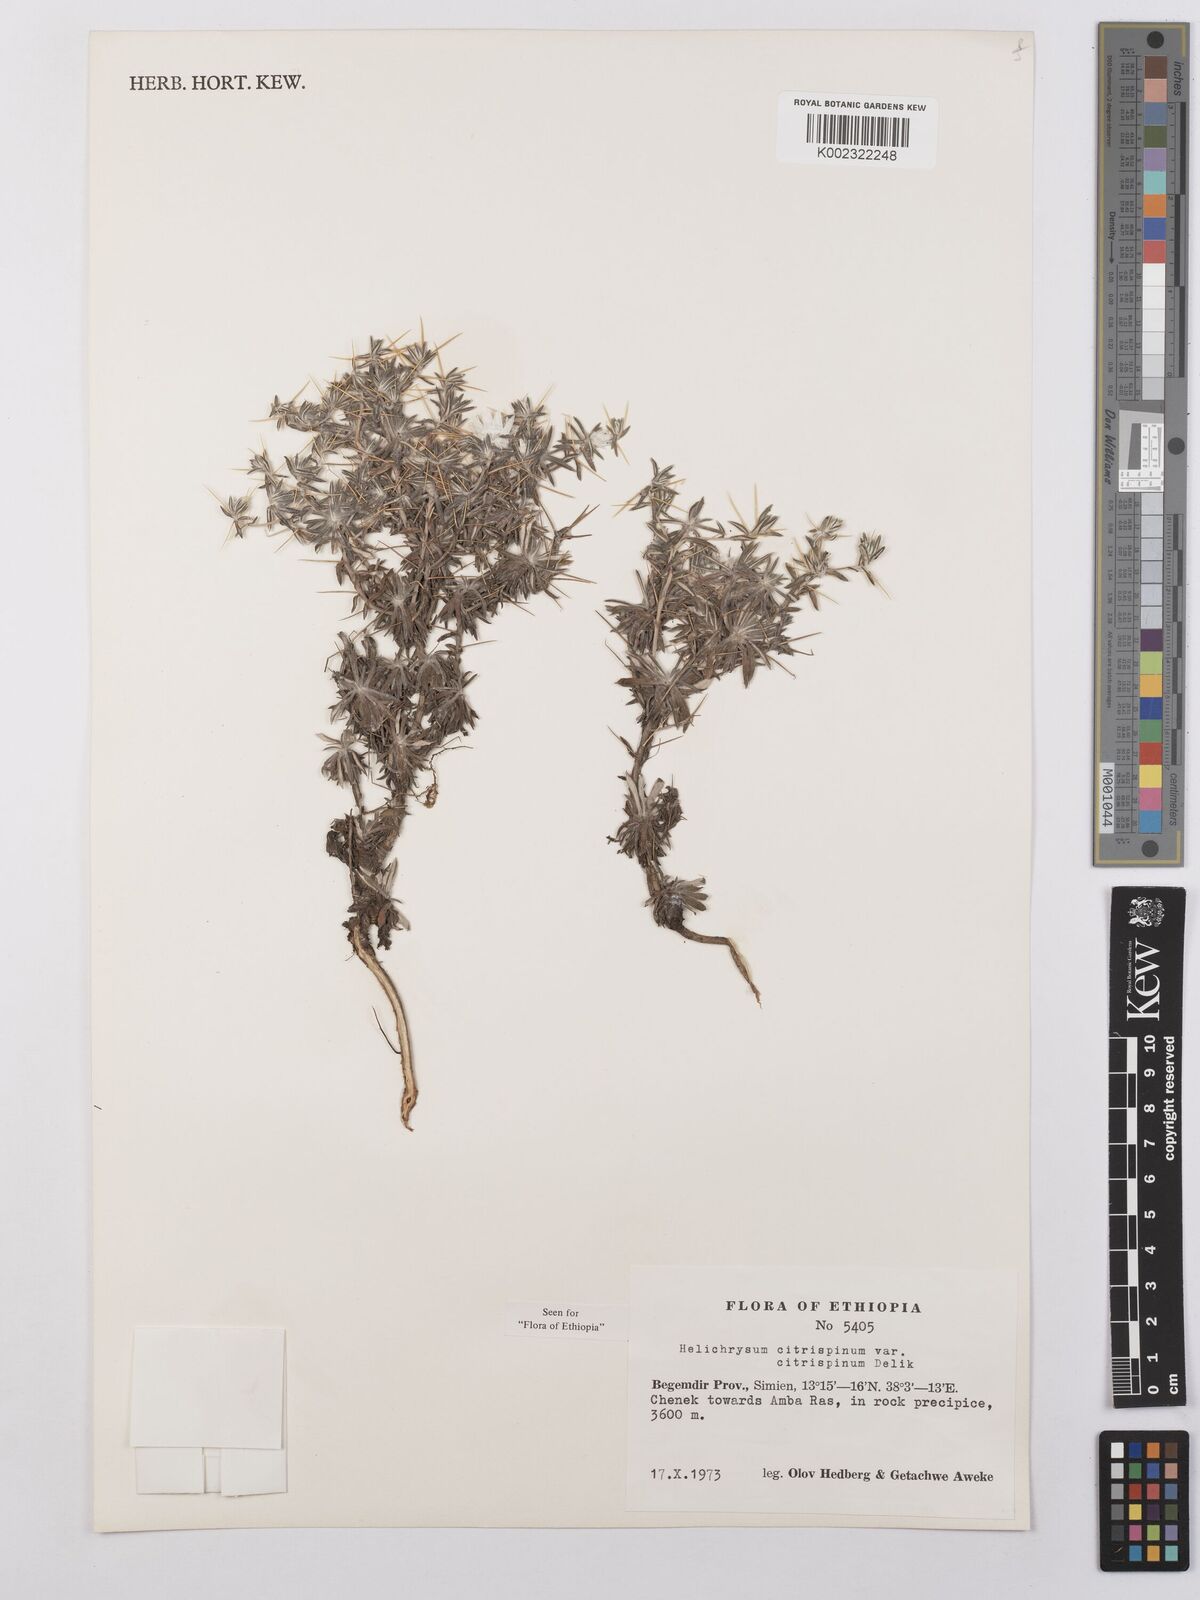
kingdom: Plantae
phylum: Tracheophyta
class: Magnoliopsida
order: Asterales
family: Asteraceae
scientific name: Asteraceae
